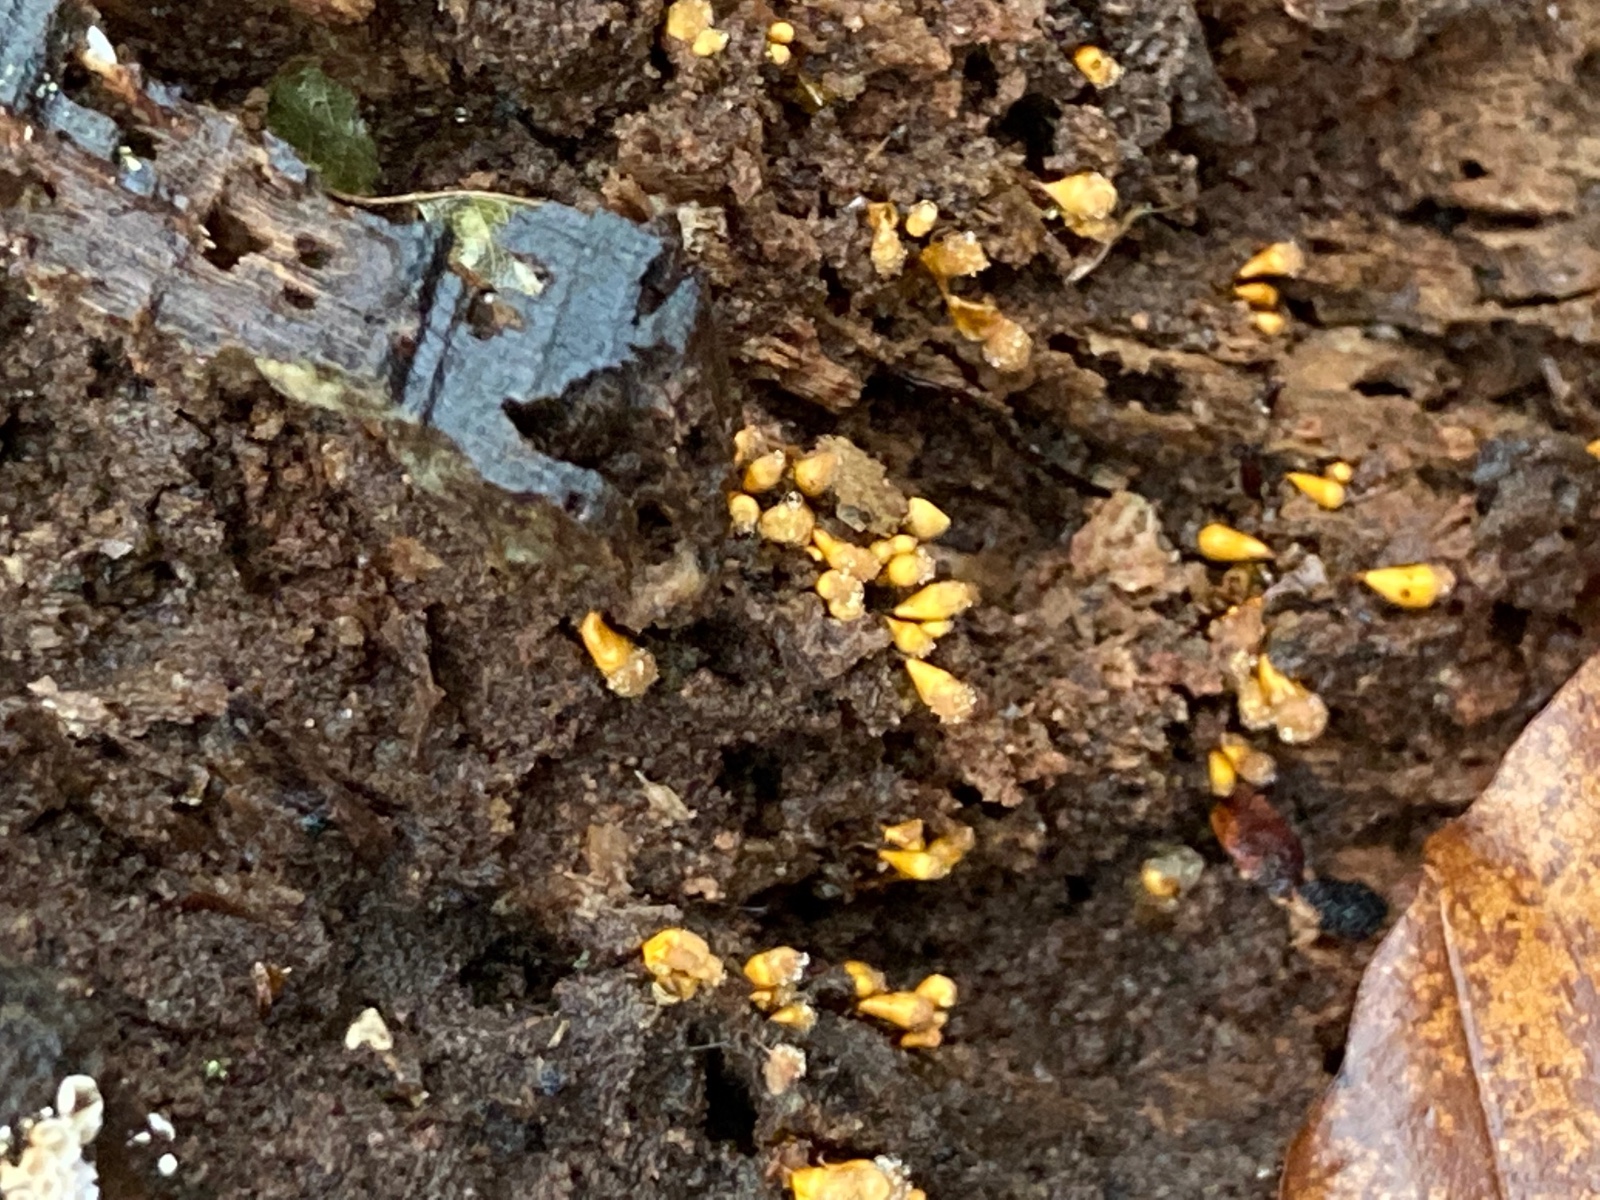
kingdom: Protozoa
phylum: Mycetozoa
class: Myxomycetes
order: Trichiales
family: Arcyriaceae
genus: Hemitrichia
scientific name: Hemitrichia clavata
